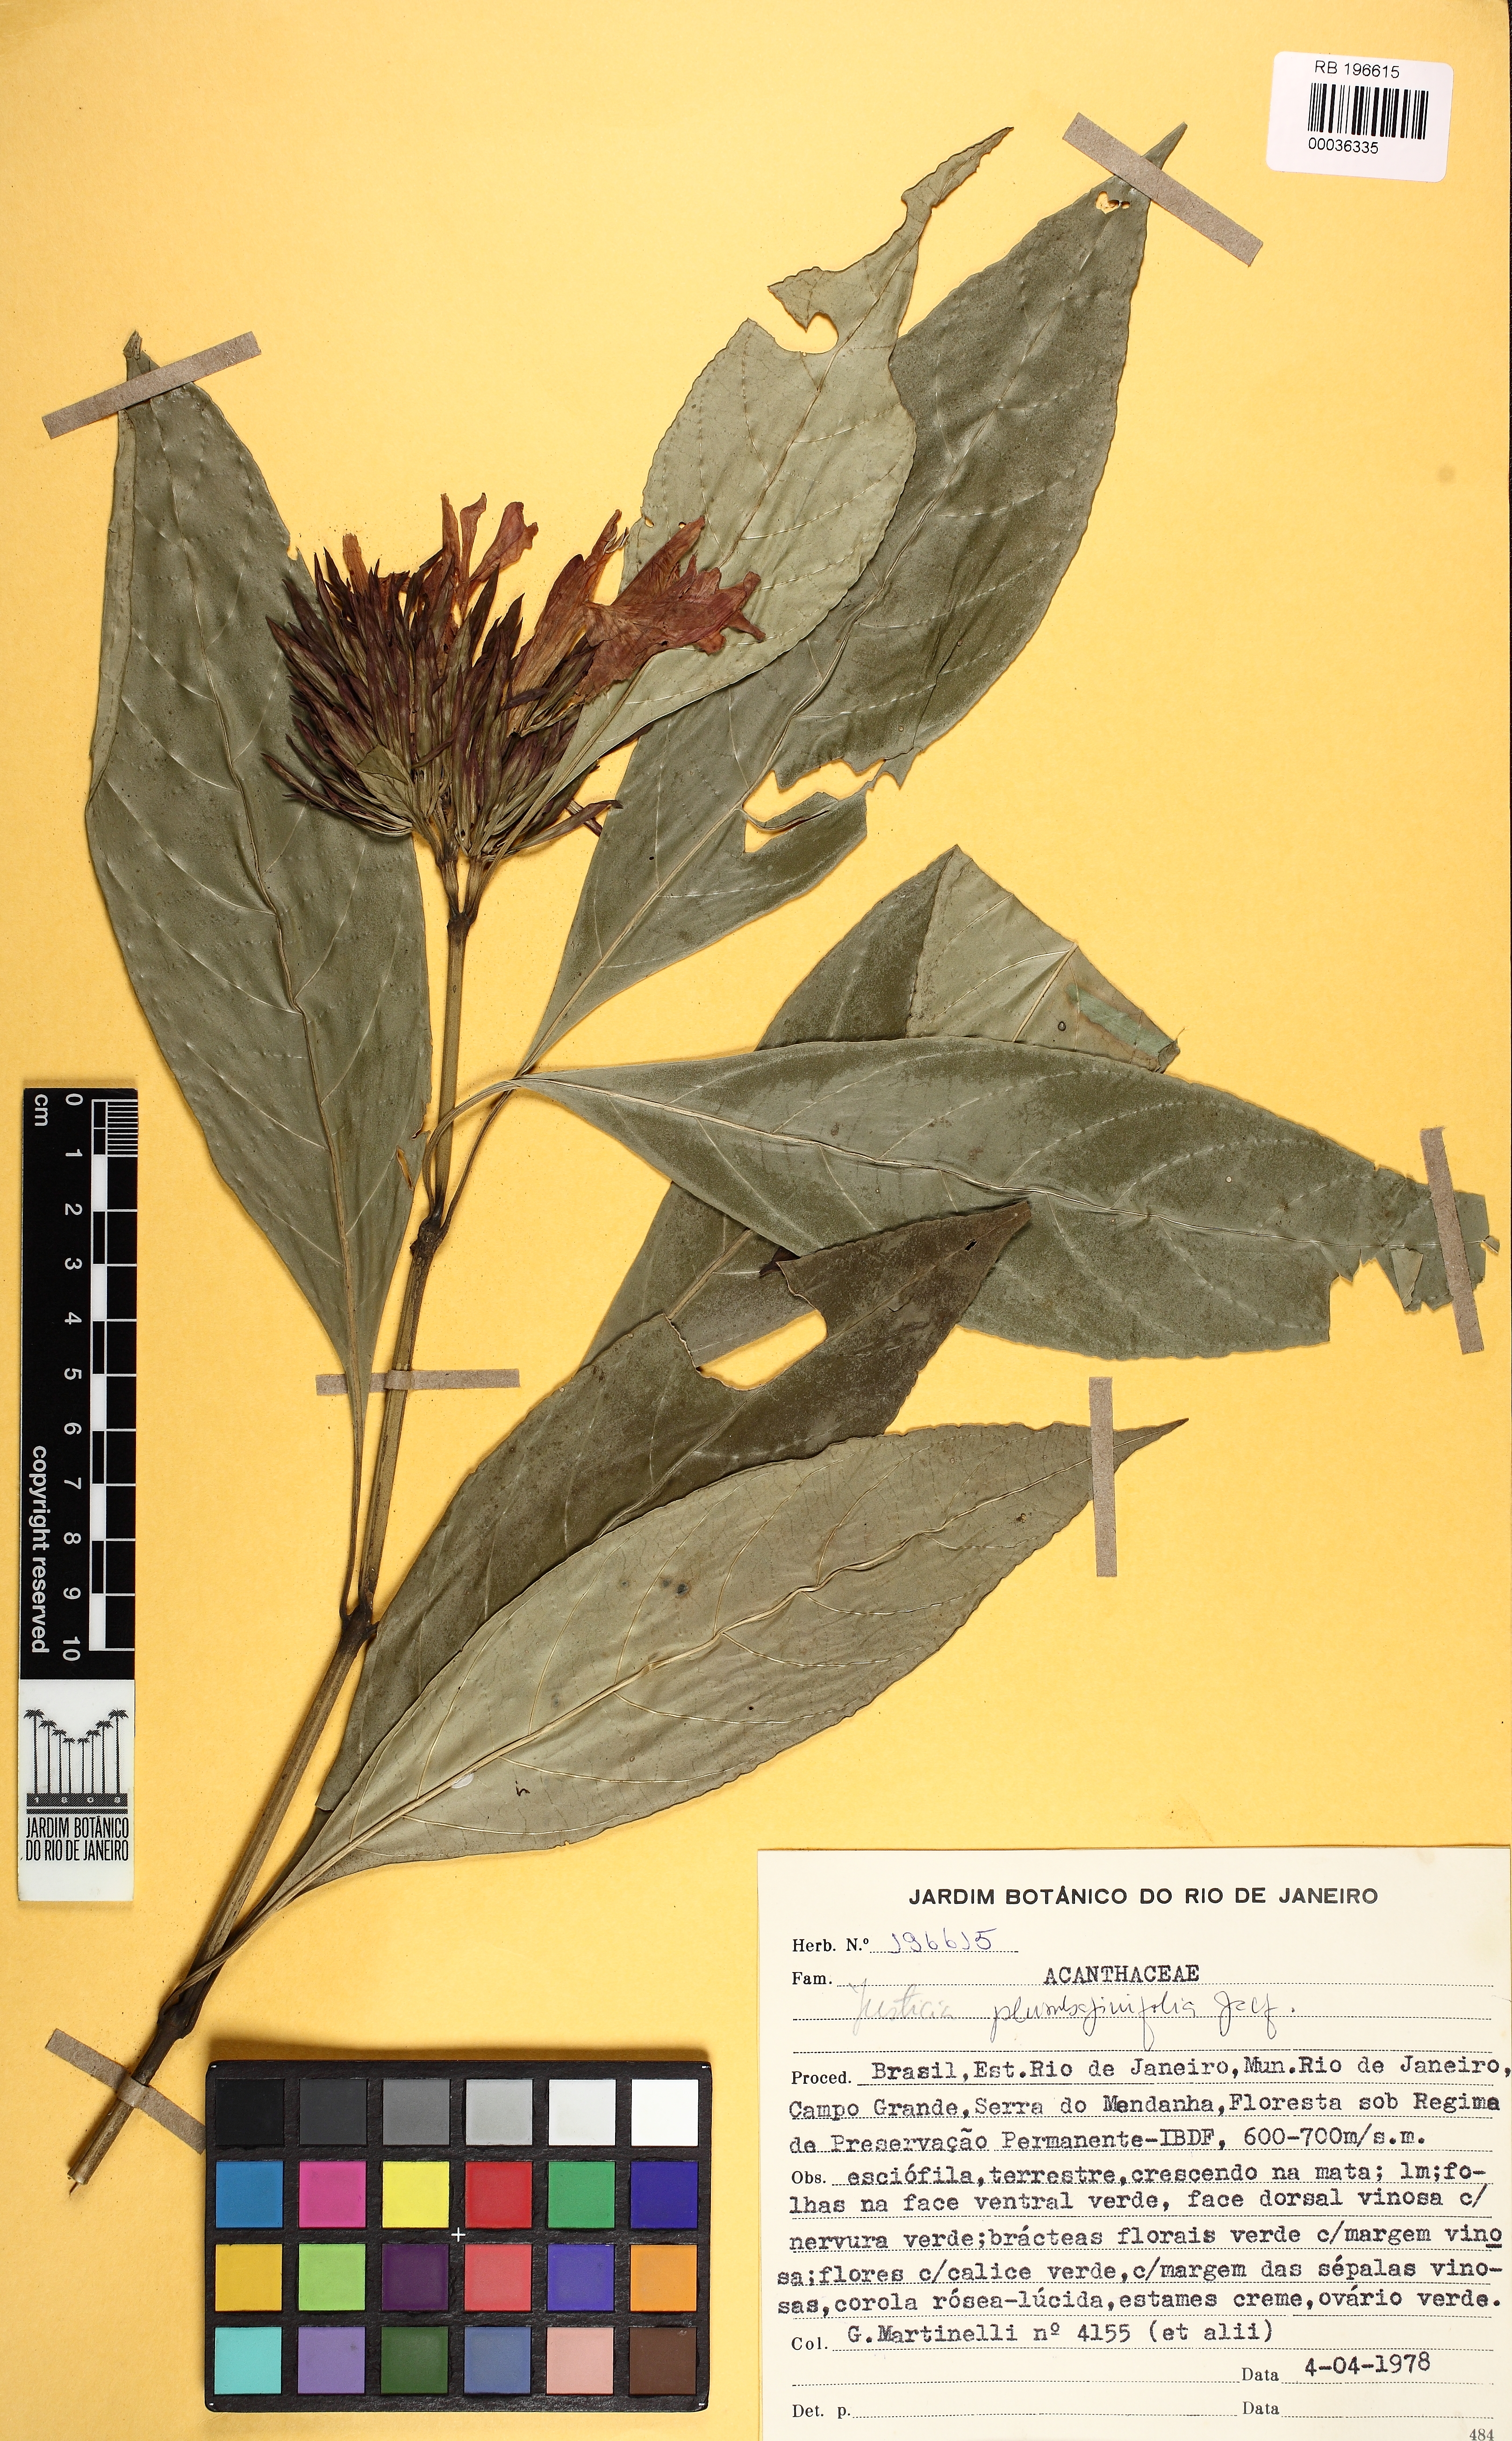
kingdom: Plantae
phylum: Tracheophyta
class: Magnoliopsida
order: Lamiales
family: Acanthaceae
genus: Justicia
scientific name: Justicia plumbaginifolia
